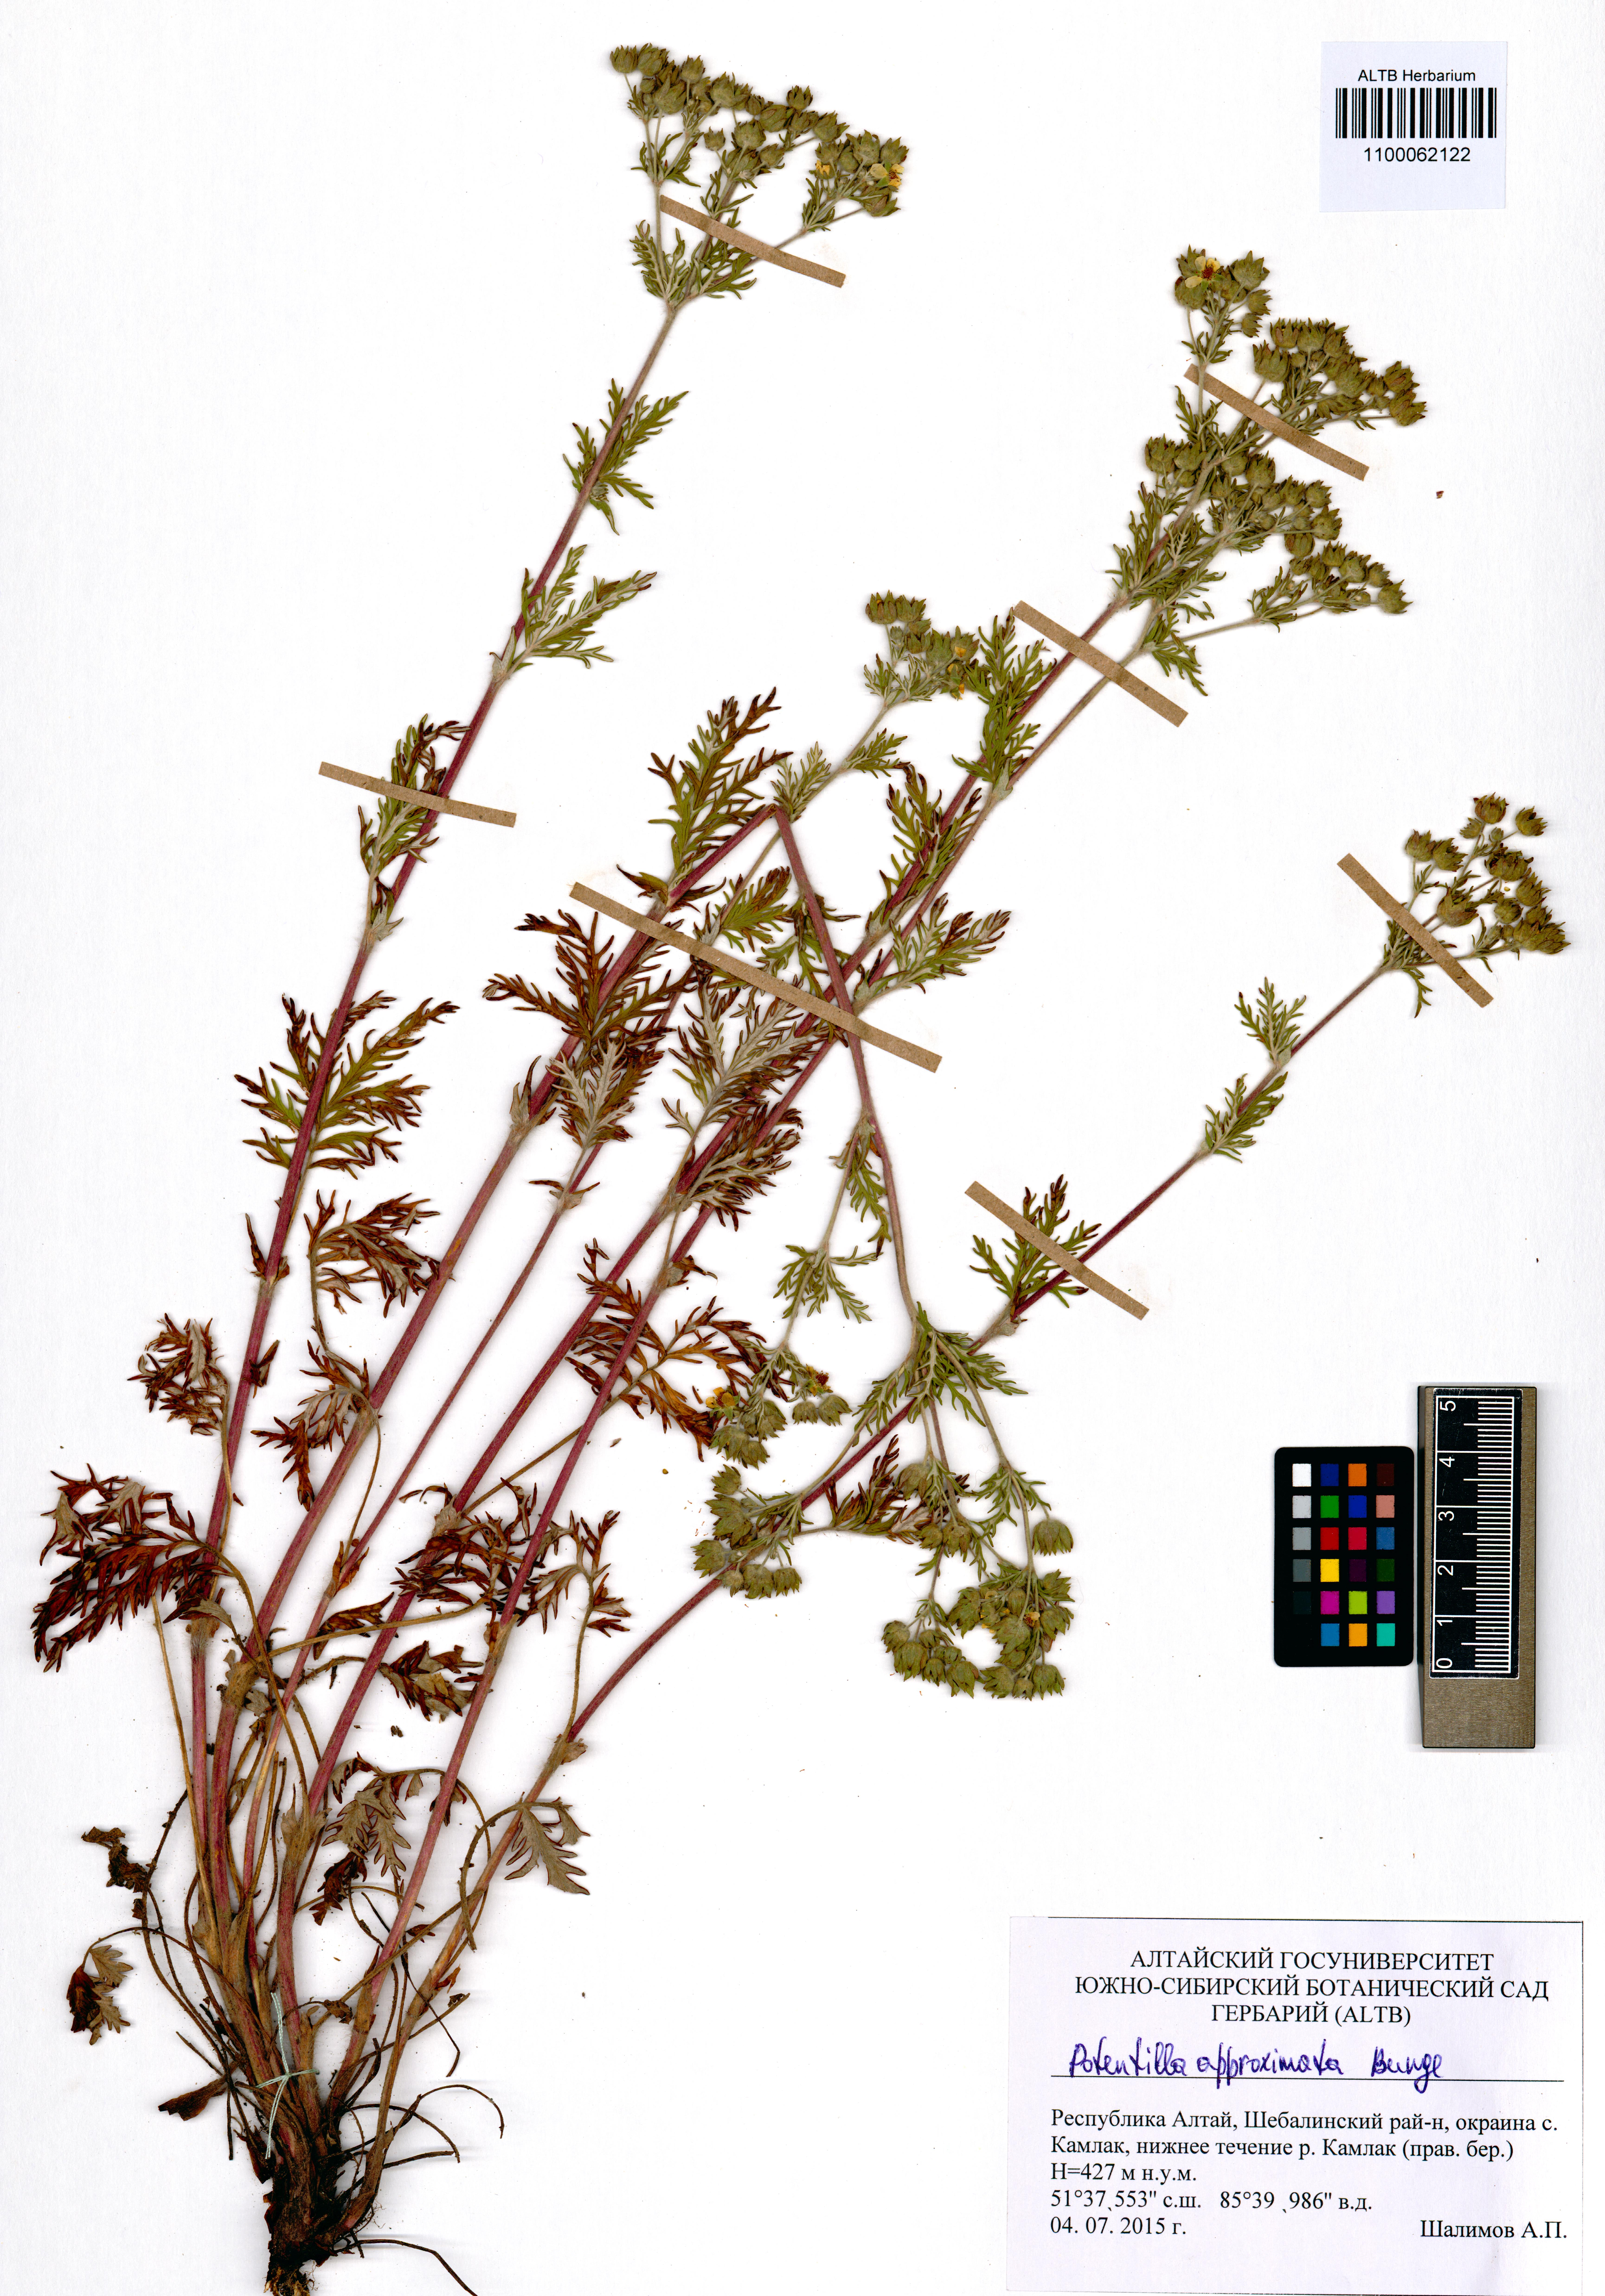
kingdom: Plantae
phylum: Tracheophyta
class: Magnoliopsida
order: Rosales
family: Rosaceae
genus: Potentilla
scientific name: Potentilla conferta
